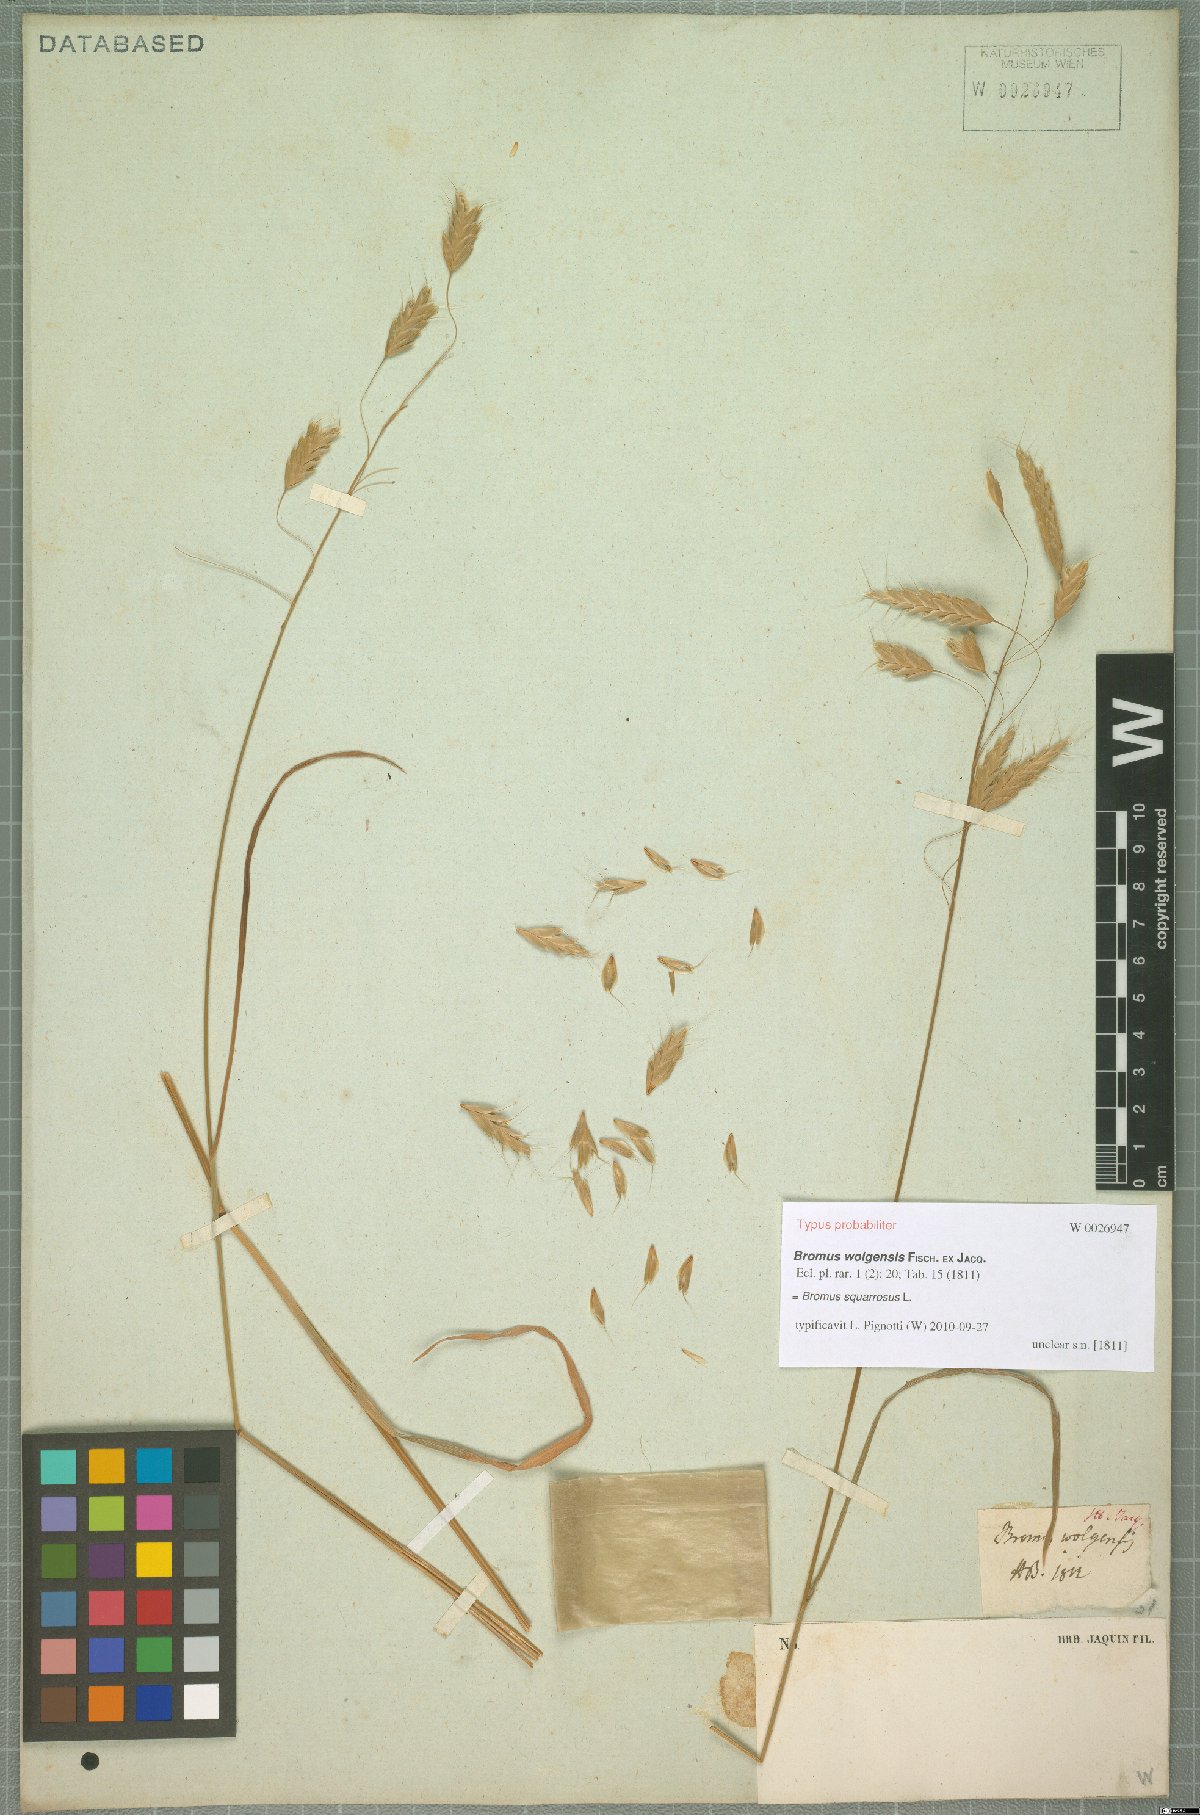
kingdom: Plantae
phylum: Tracheophyta
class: Liliopsida
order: Poales
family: Poaceae
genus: Bromus
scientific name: Bromus squarrosus
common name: Corn brome
